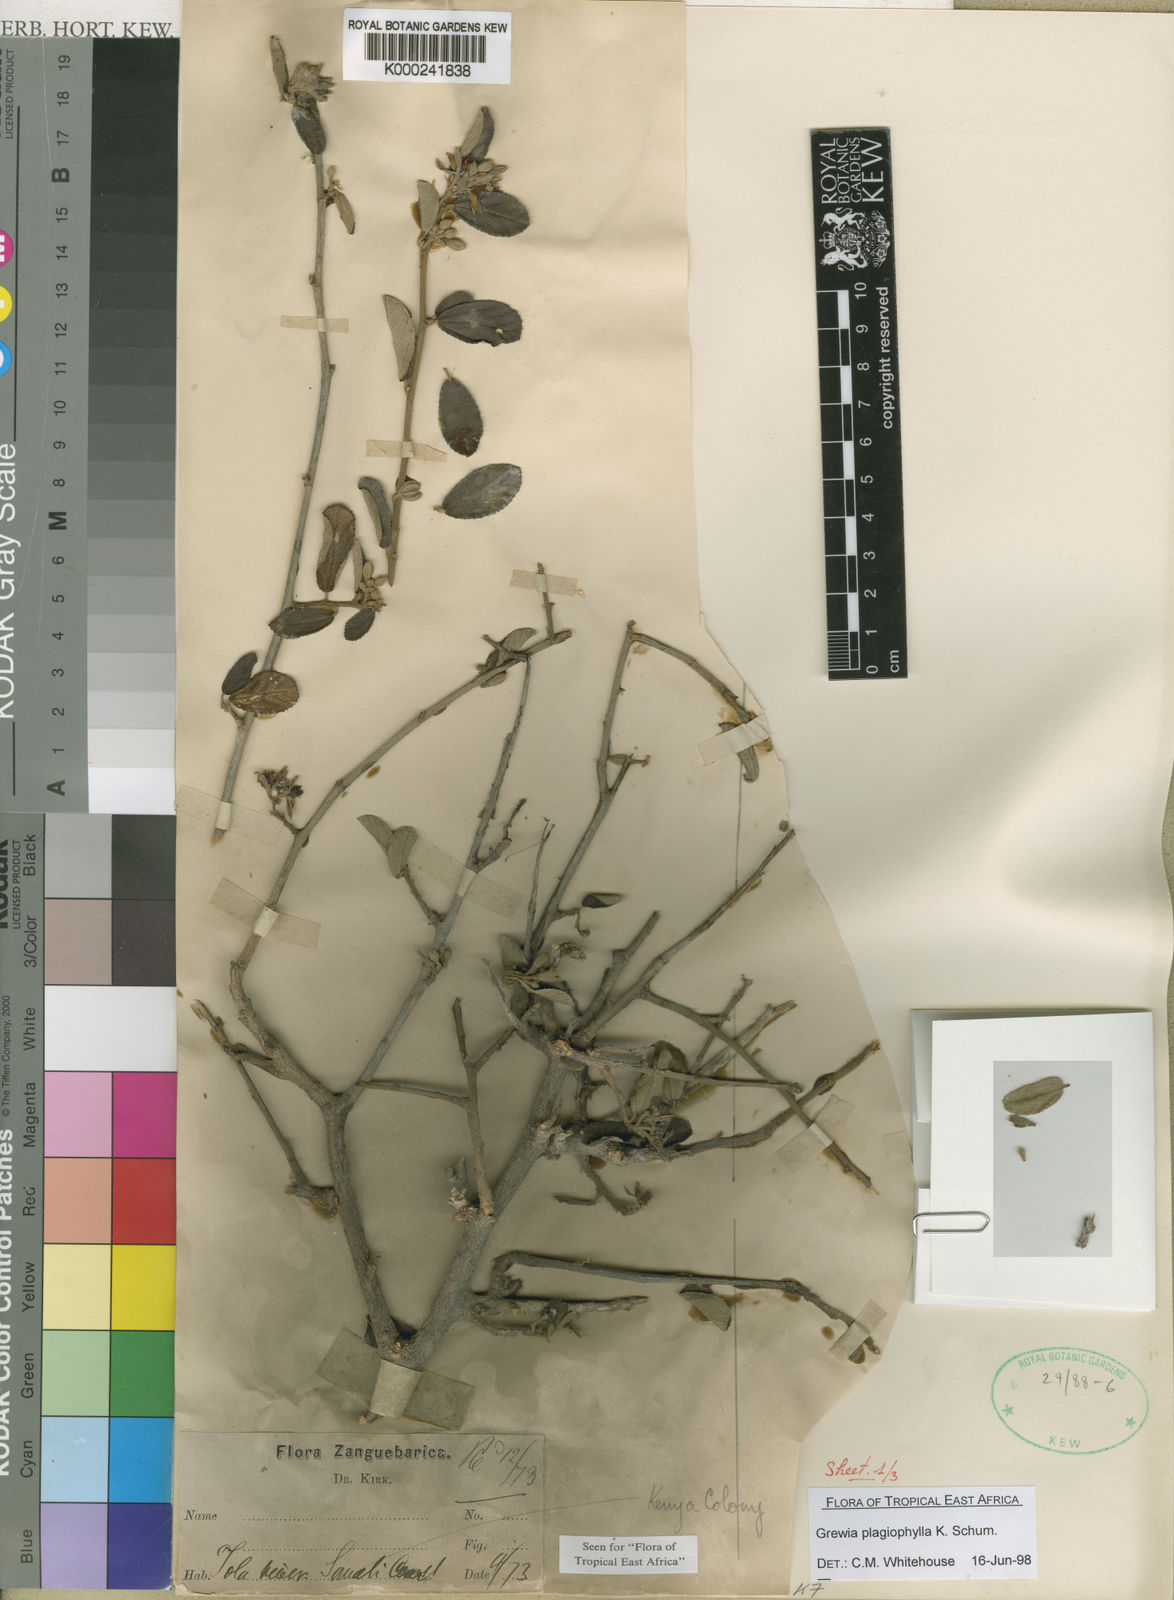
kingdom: Plantae
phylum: Tracheophyta
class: Magnoliopsida
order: Malvales
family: Malvaceae
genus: Grewia
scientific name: Grewia plagiophylla
